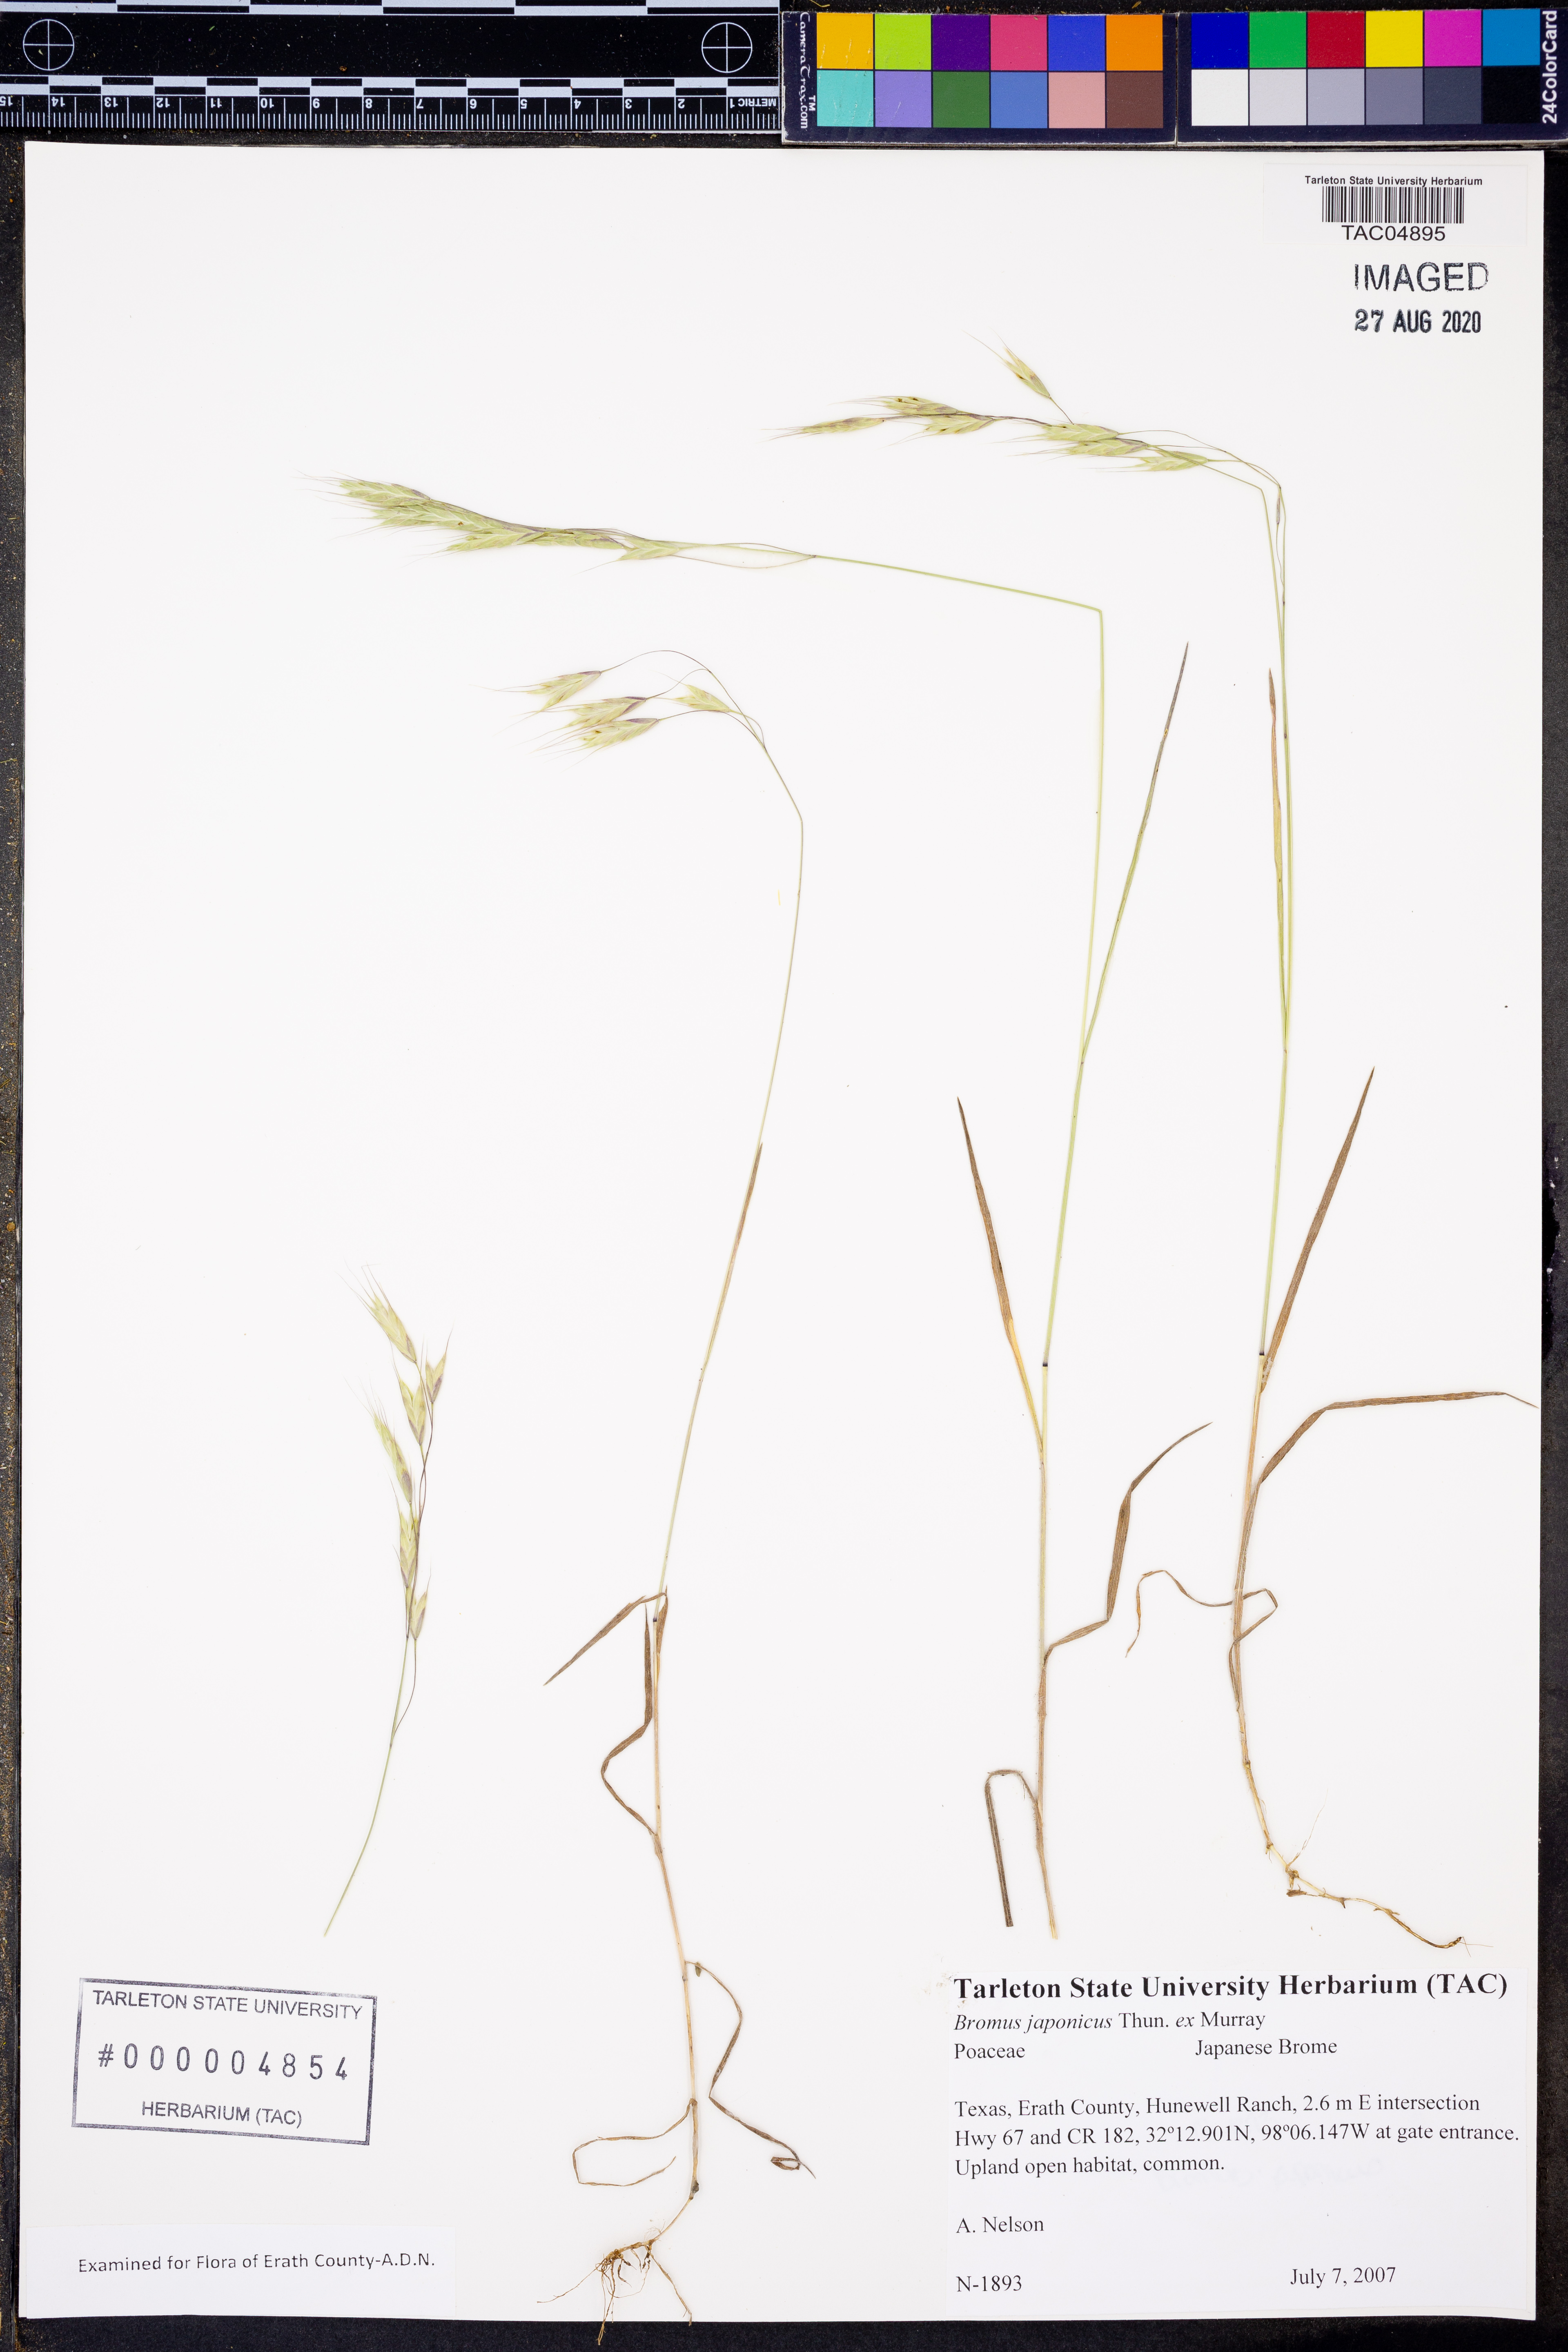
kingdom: Plantae
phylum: Tracheophyta
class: Liliopsida
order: Poales
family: Poaceae
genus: Bromus
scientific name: Bromus japonicus
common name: Japanese brome
